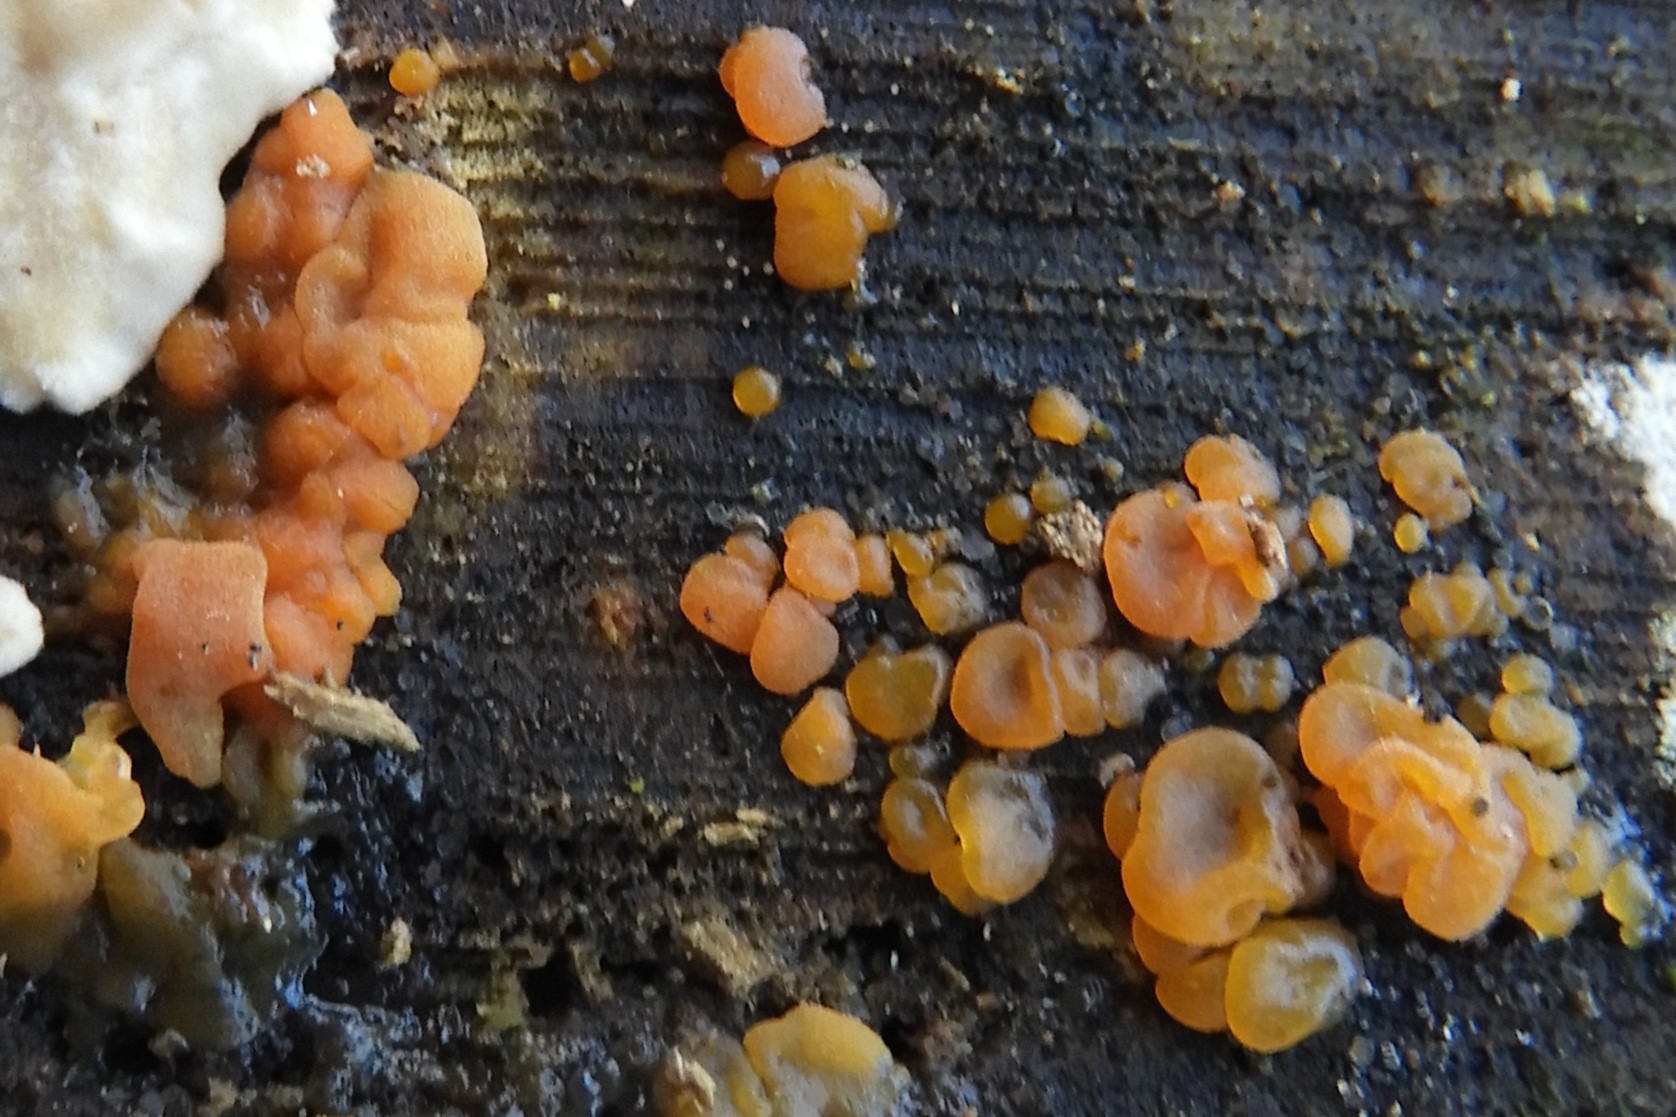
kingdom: Fungi
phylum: Basidiomycota
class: Dacrymycetes
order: Dacrymycetales
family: Dacrymycetaceae
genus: Dacrymyces
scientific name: Dacrymyces stillatus
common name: almindelig tåresvamp
